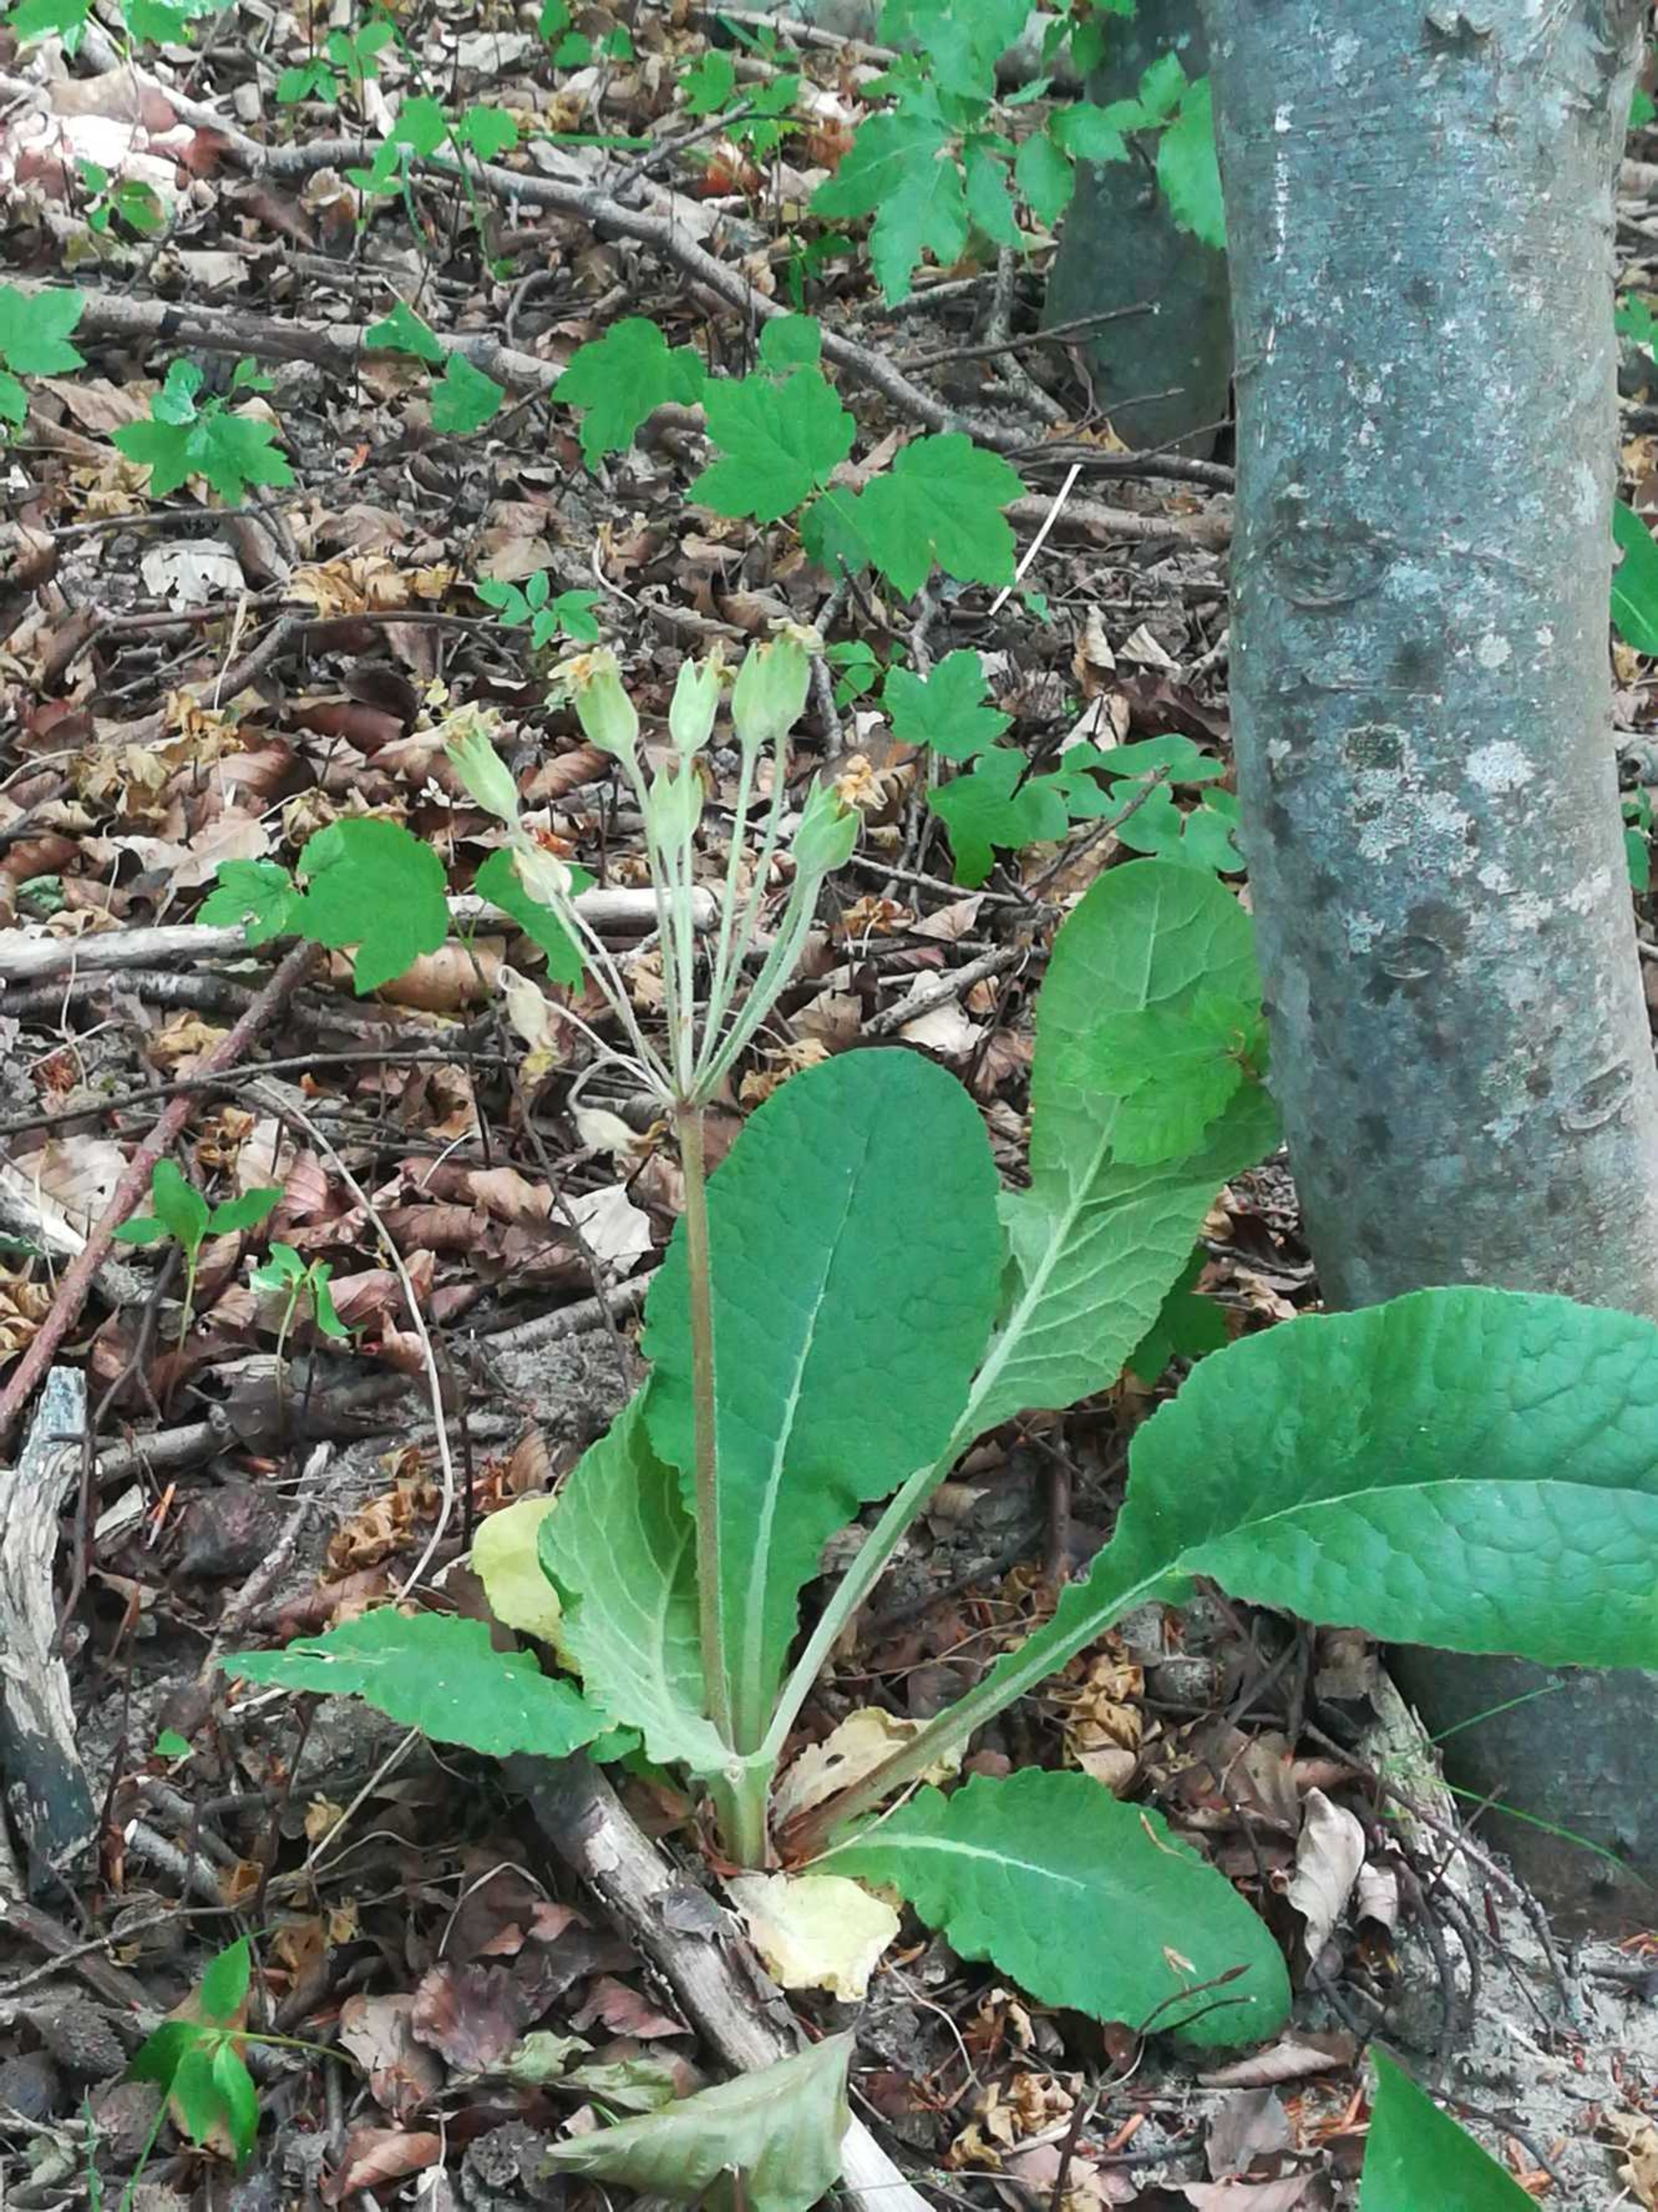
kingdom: Plantae
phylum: Tracheophyta
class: Magnoliopsida
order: Ericales
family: Primulaceae
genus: Primula
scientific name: Primula
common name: Fladkravet kodriver × storblomstret kodriver
